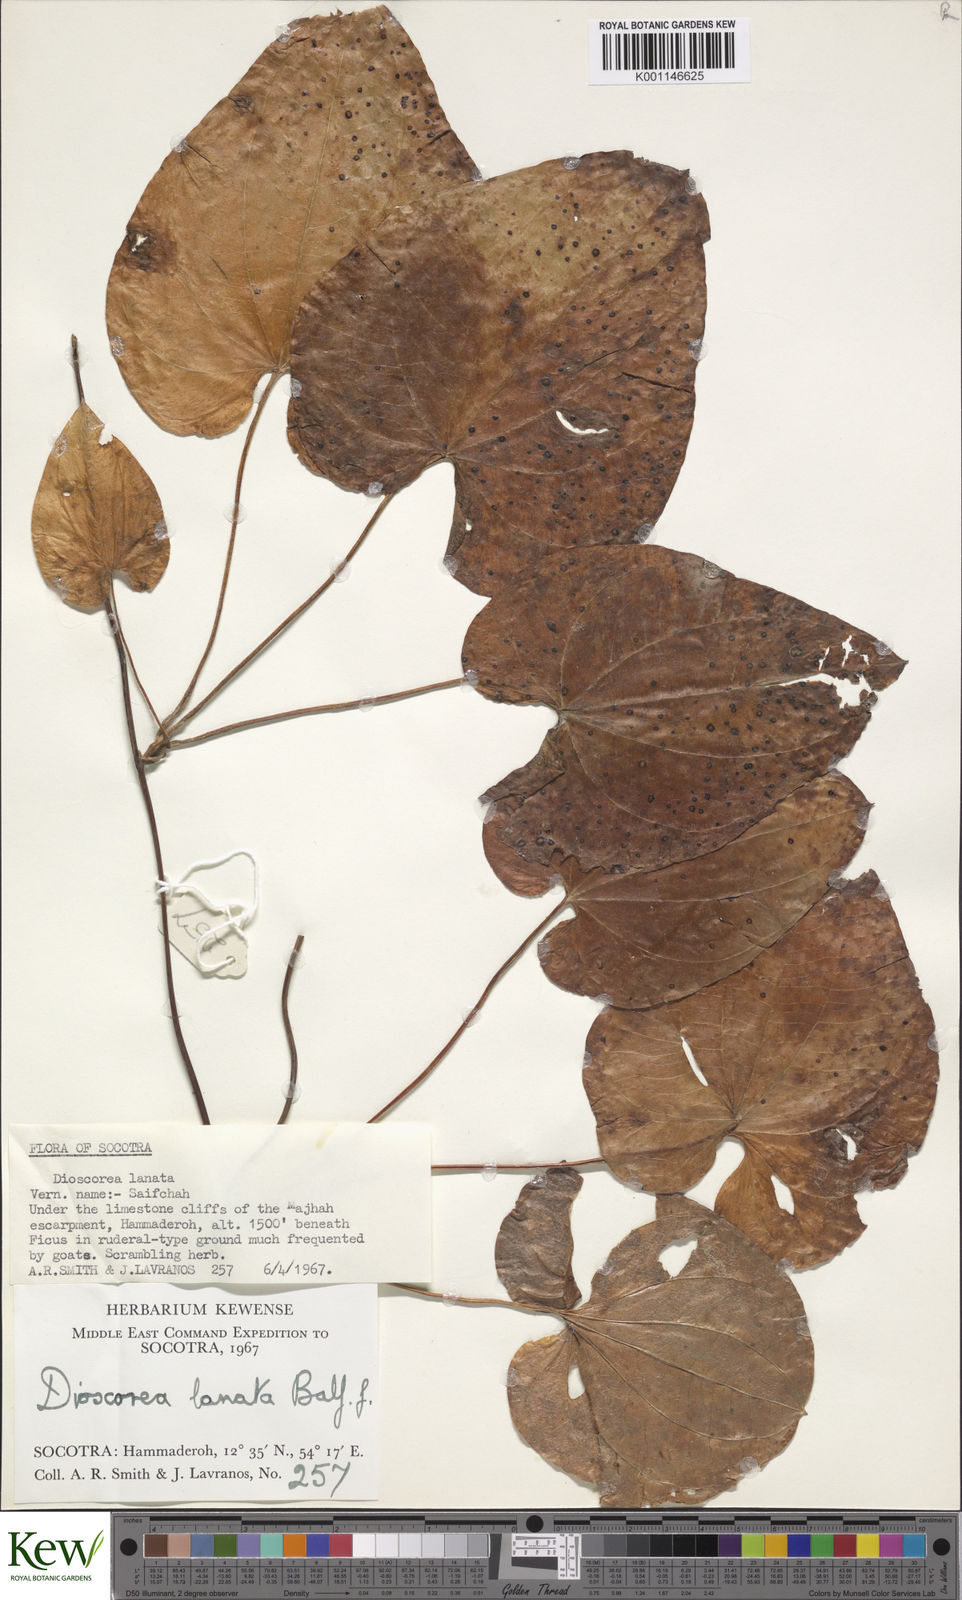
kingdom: Plantae
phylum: Tracheophyta
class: Liliopsida
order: Dioscoreales
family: Dioscoreaceae
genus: Dioscorea
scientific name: Dioscorea
